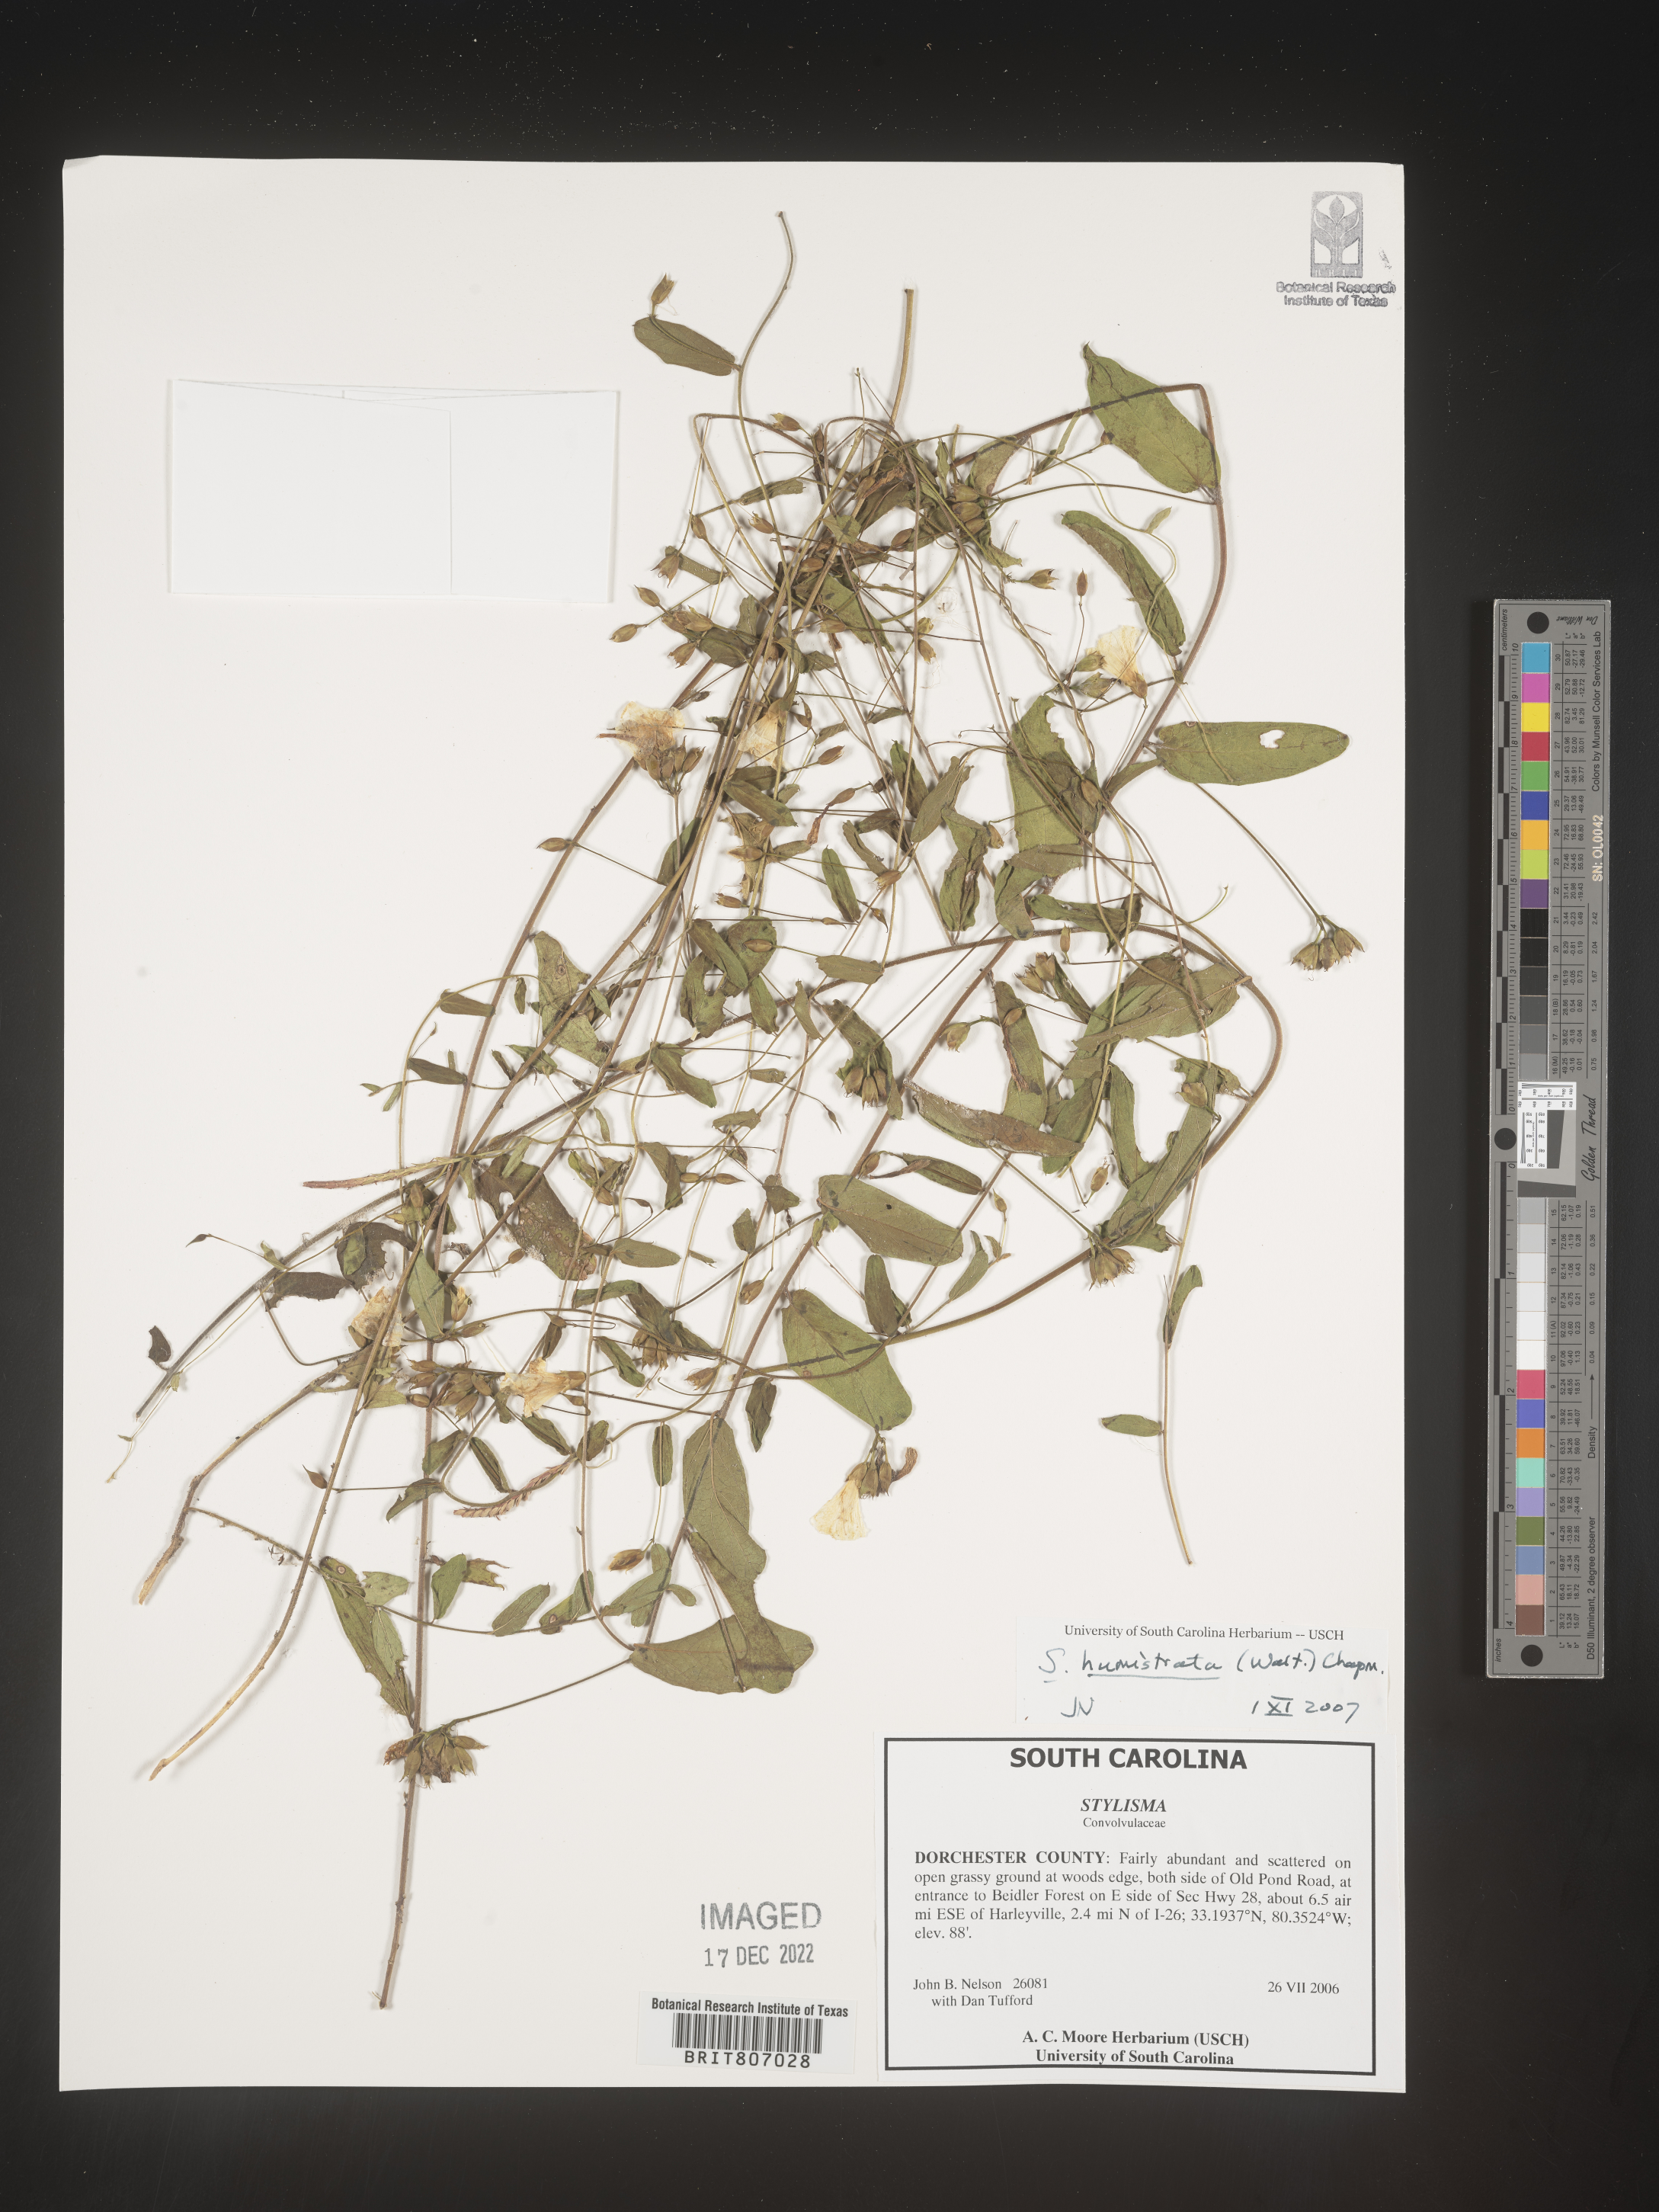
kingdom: Plantae
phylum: Tracheophyta
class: Magnoliopsida
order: Solanales
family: Convolvulaceae
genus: Stylisma
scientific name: Stylisma humistrata
